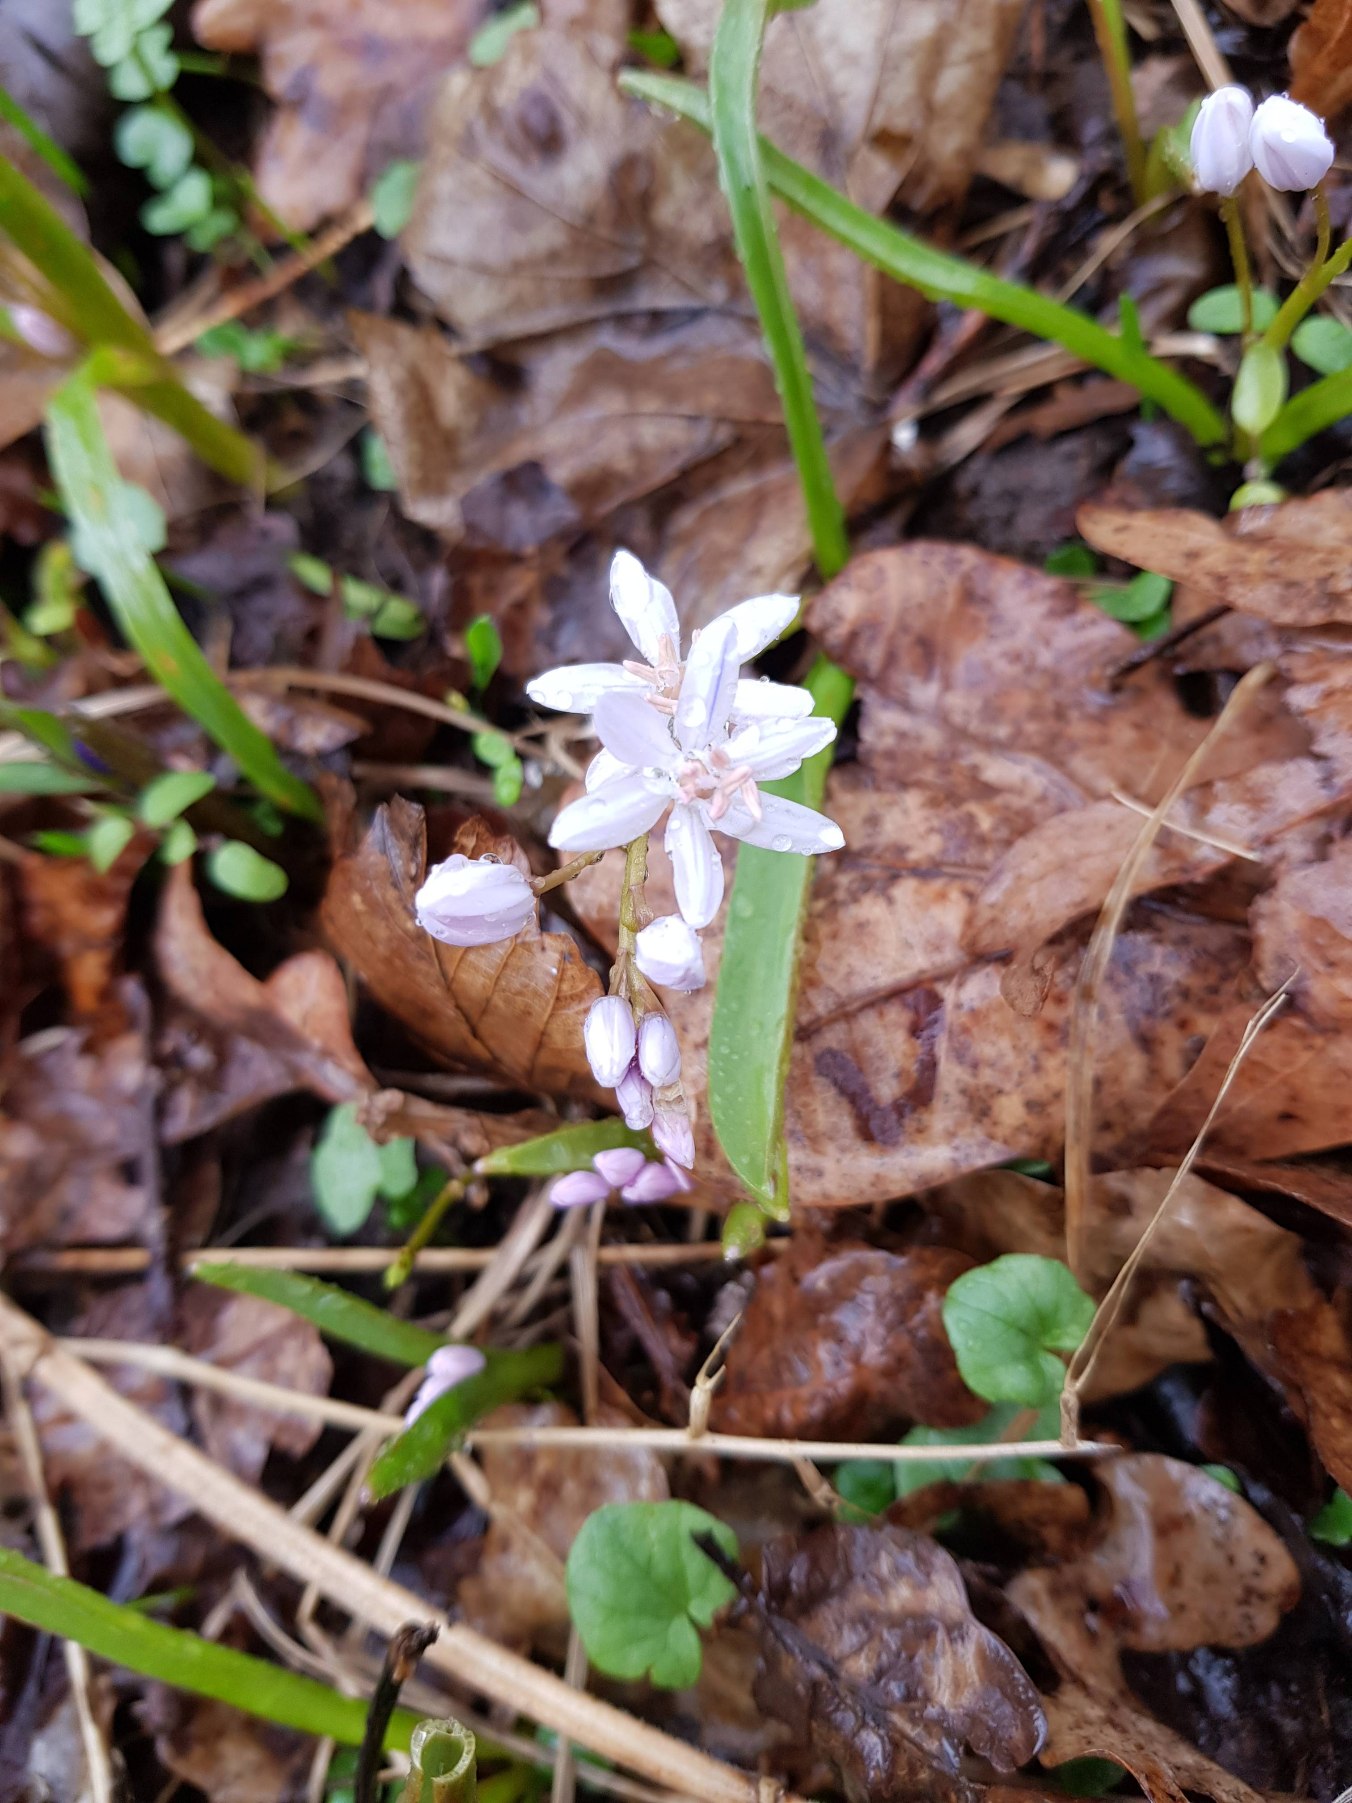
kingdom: Plantae
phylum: Tracheophyta
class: Liliopsida
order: Asparagales
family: Asparagaceae
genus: Scilla
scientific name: Scilla bifolia
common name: Tobladet skilla
